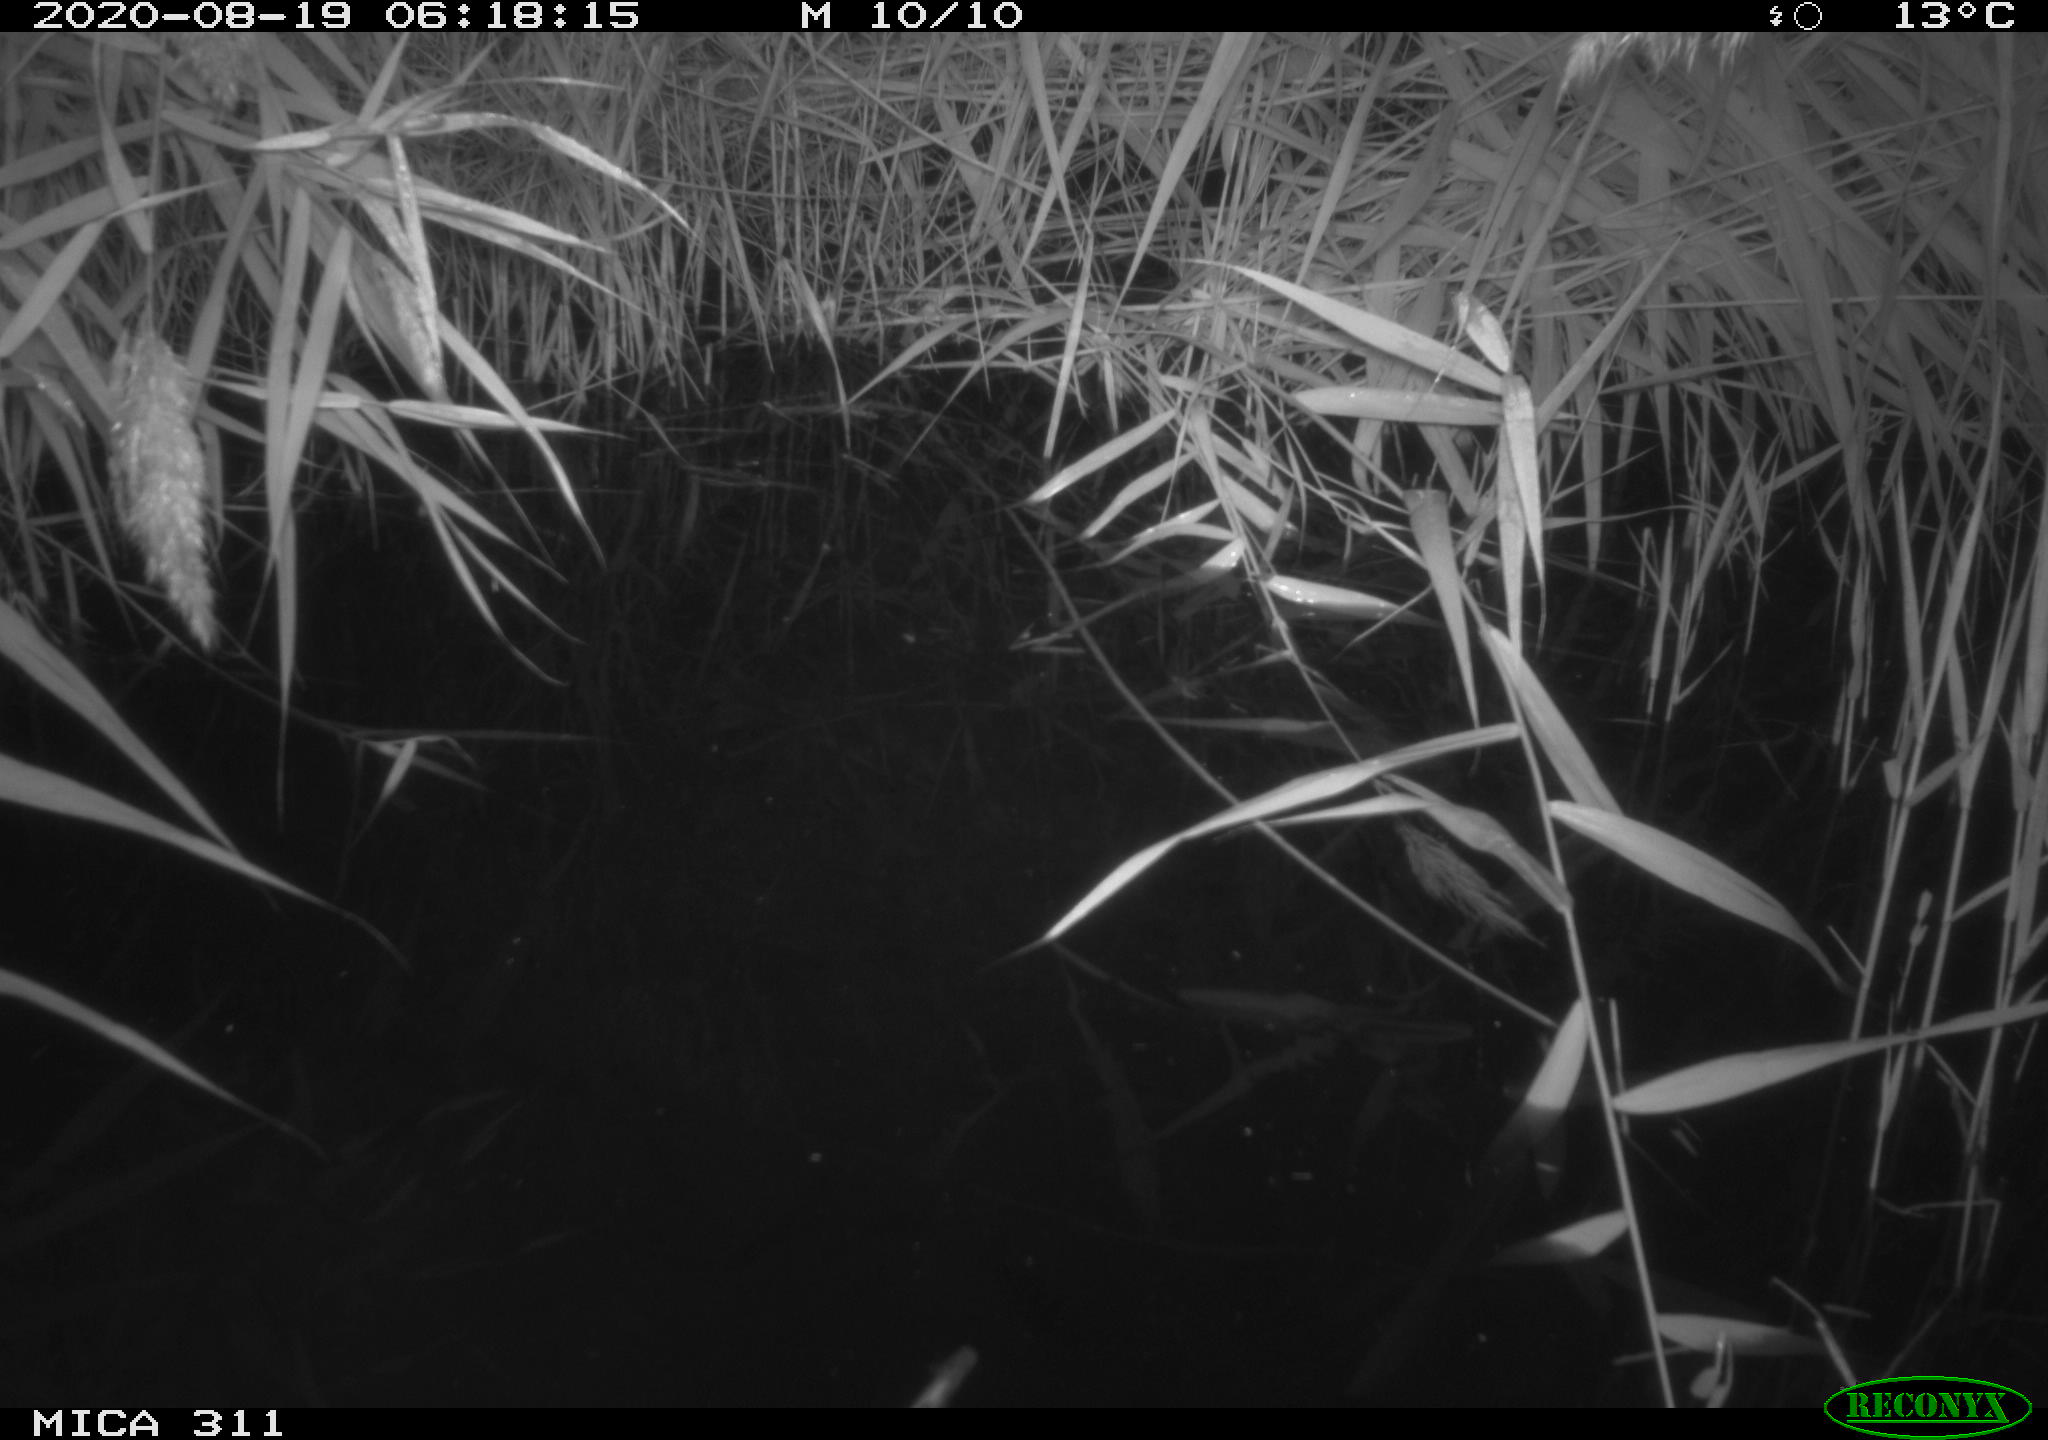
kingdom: Animalia
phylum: Chordata
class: Aves
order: Gruiformes
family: Rallidae
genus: Gallinula
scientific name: Gallinula chloropus
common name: Common moorhen
